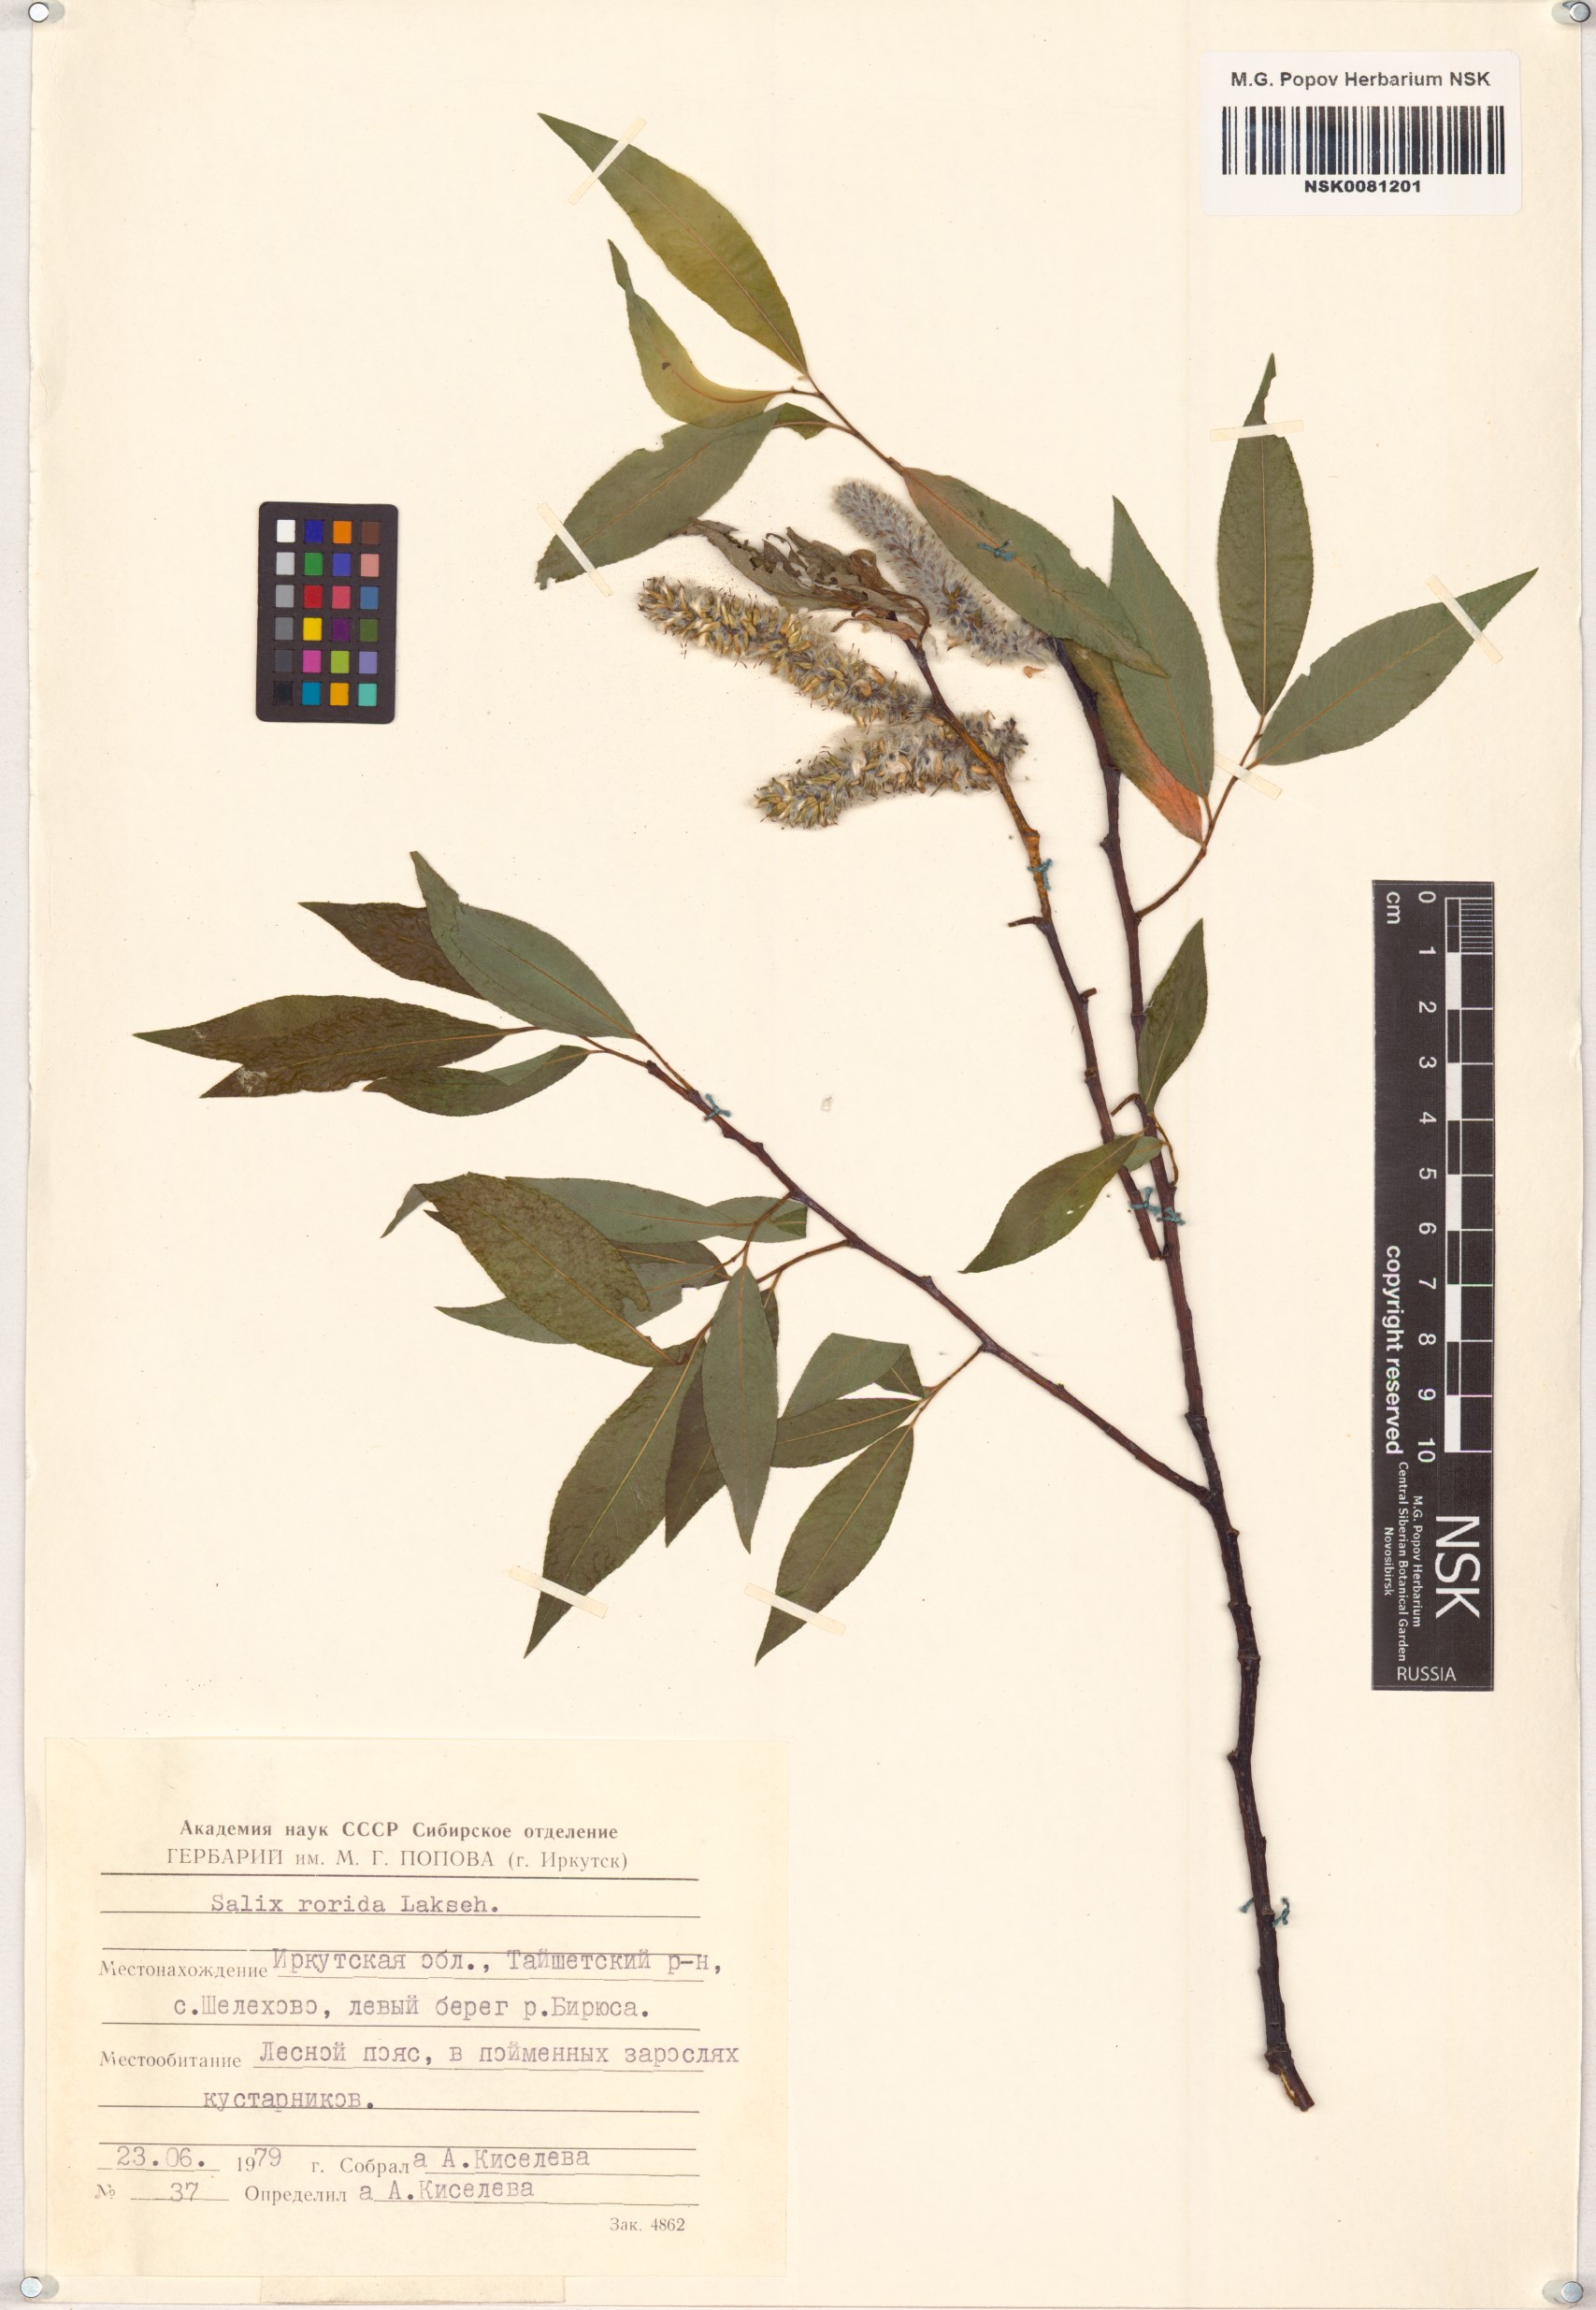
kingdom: Plantae
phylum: Tracheophyta
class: Magnoliopsida
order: Malpighiales
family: Salicaceae
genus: Salix
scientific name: Salix rorida
